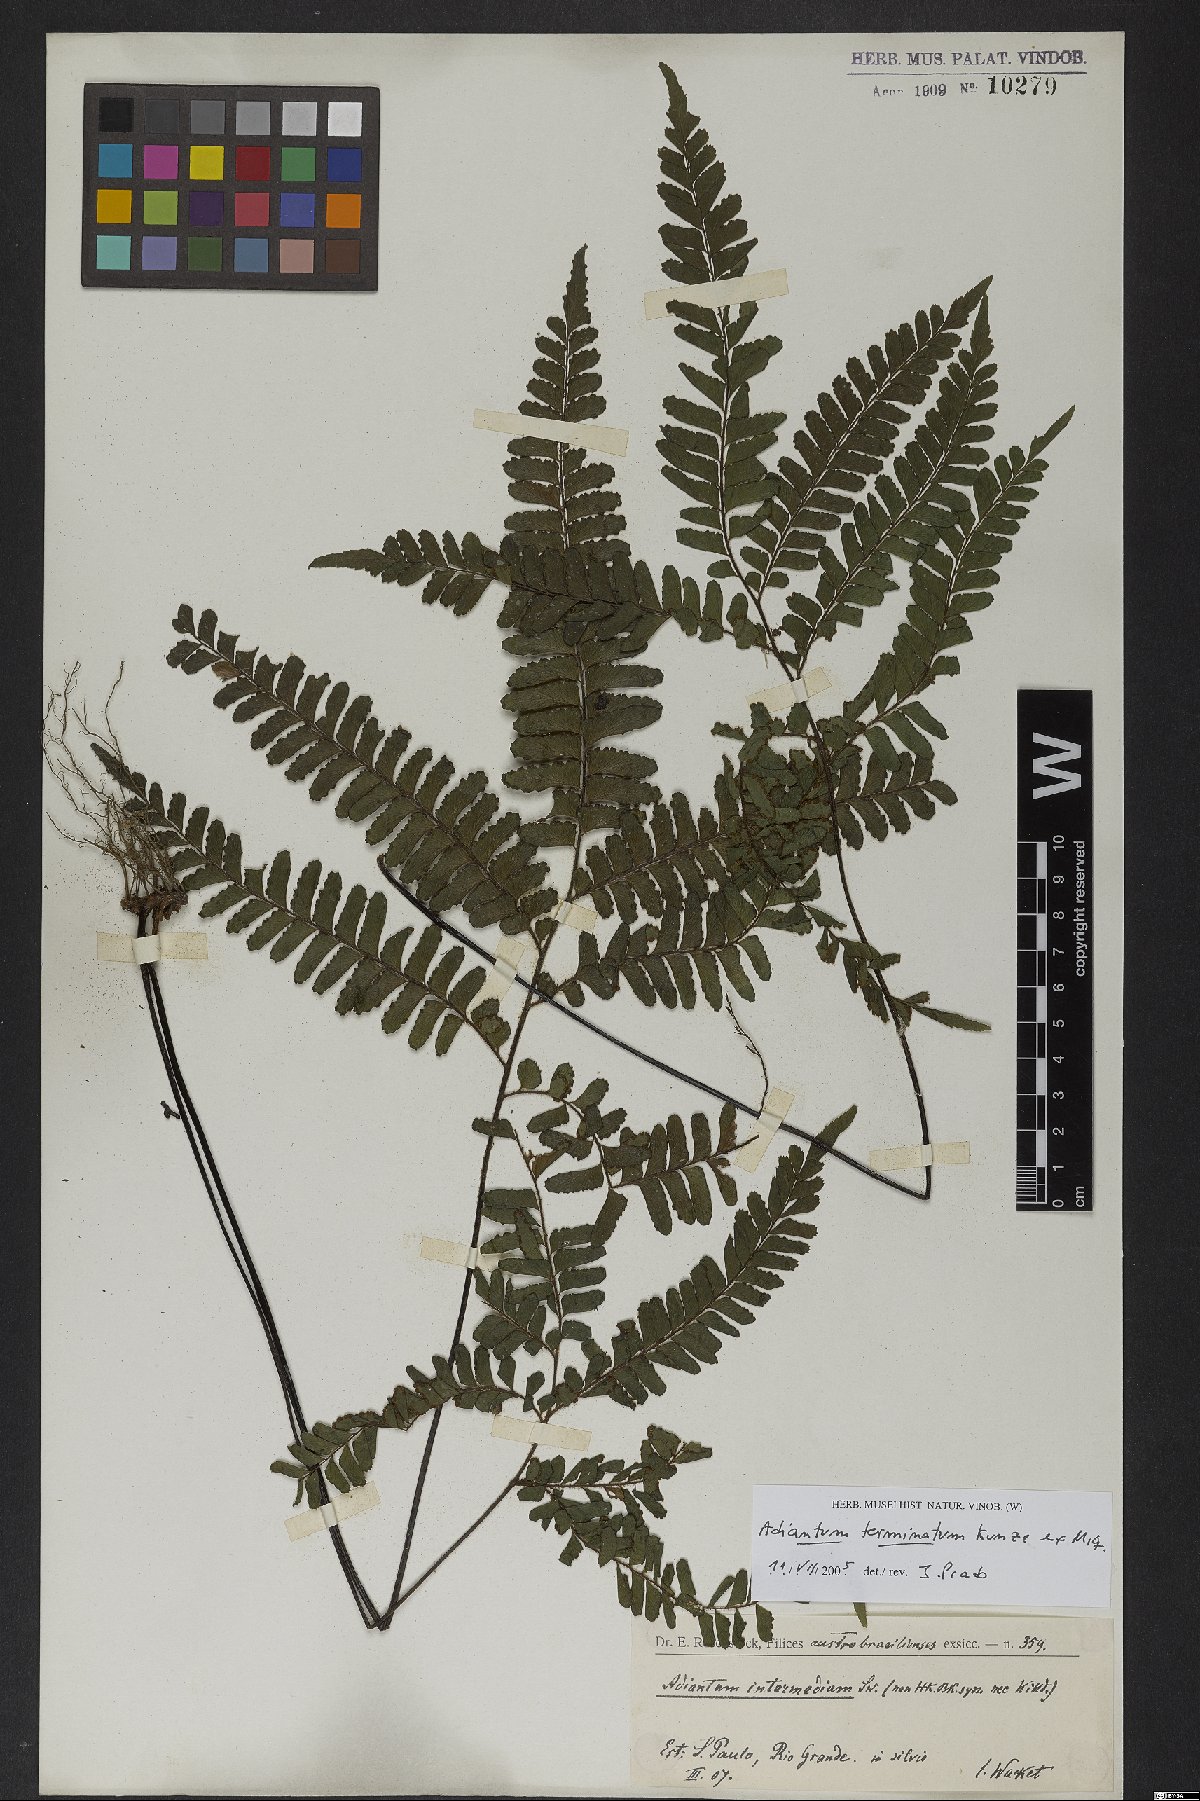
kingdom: Plantae
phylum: Tracheophyta
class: Polypodiopsida
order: Polypodiales
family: Pteridaceae
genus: Adiantum
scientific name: Adiantum terminatum
